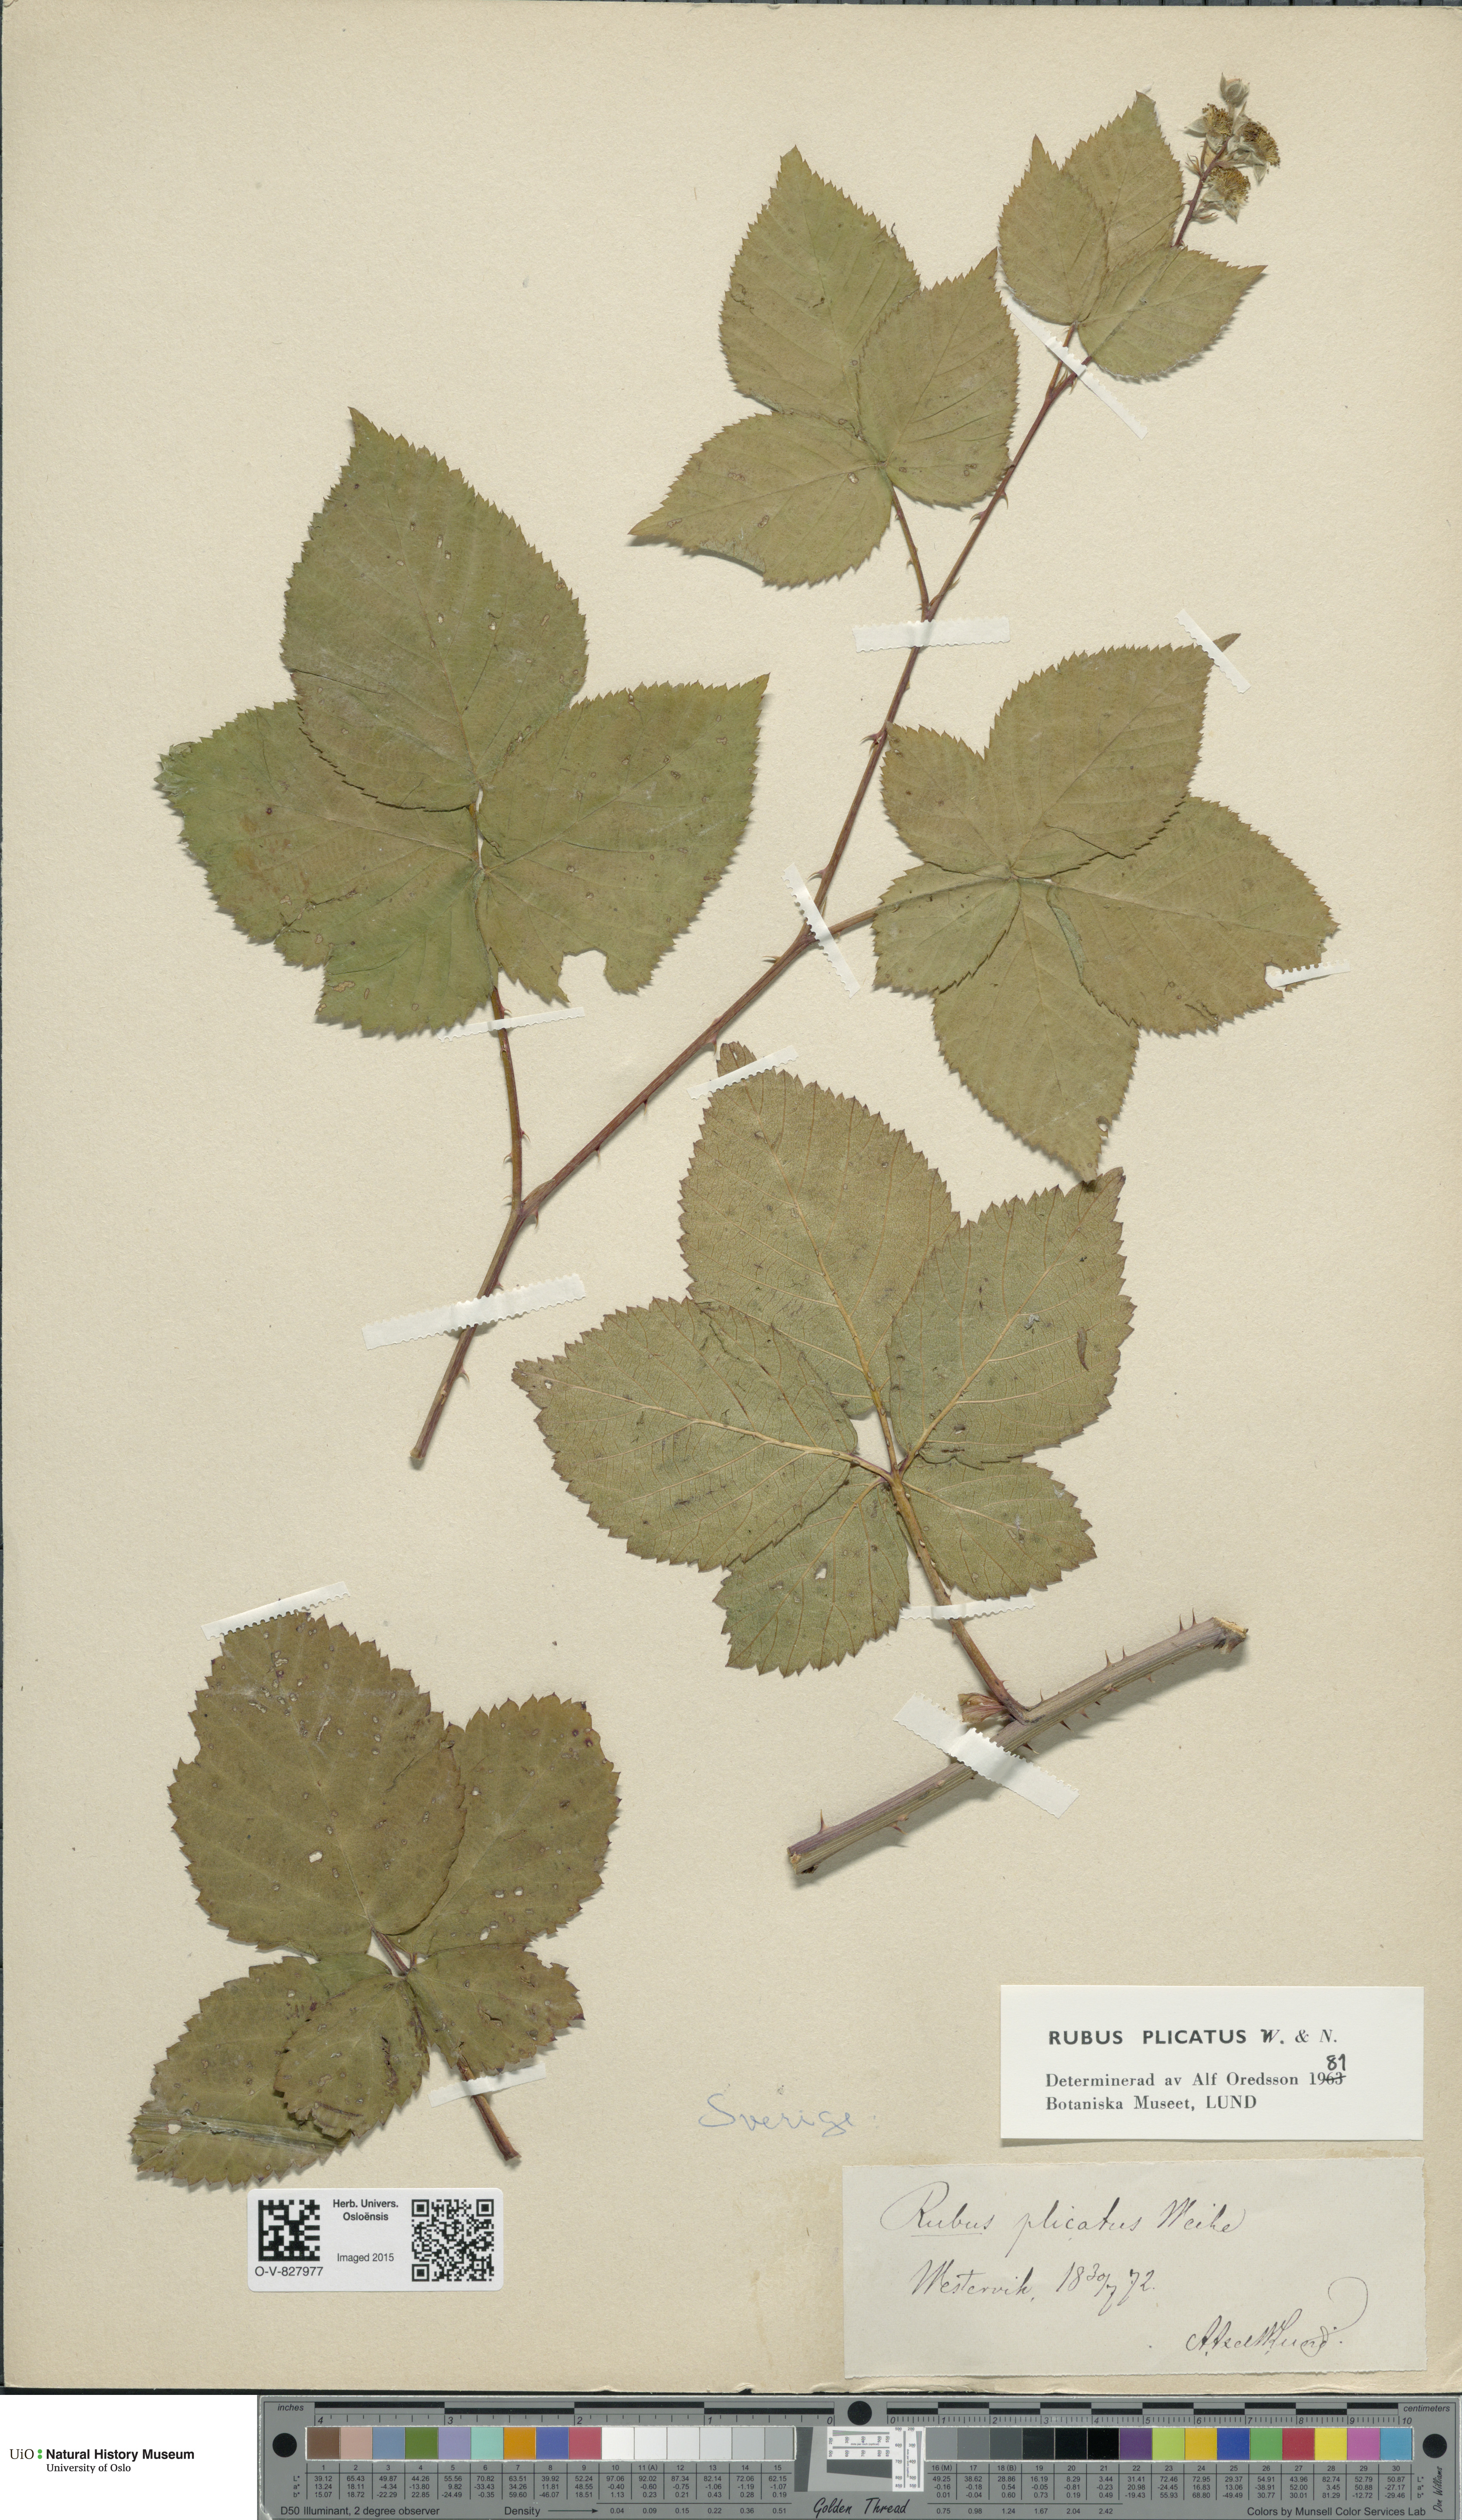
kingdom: Plantae
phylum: Tracheophyta
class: Magnoliopsida
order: Rosales
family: Rosaceae
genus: Rubus
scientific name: Rubus fruticosus
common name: Blackberry, bramble
